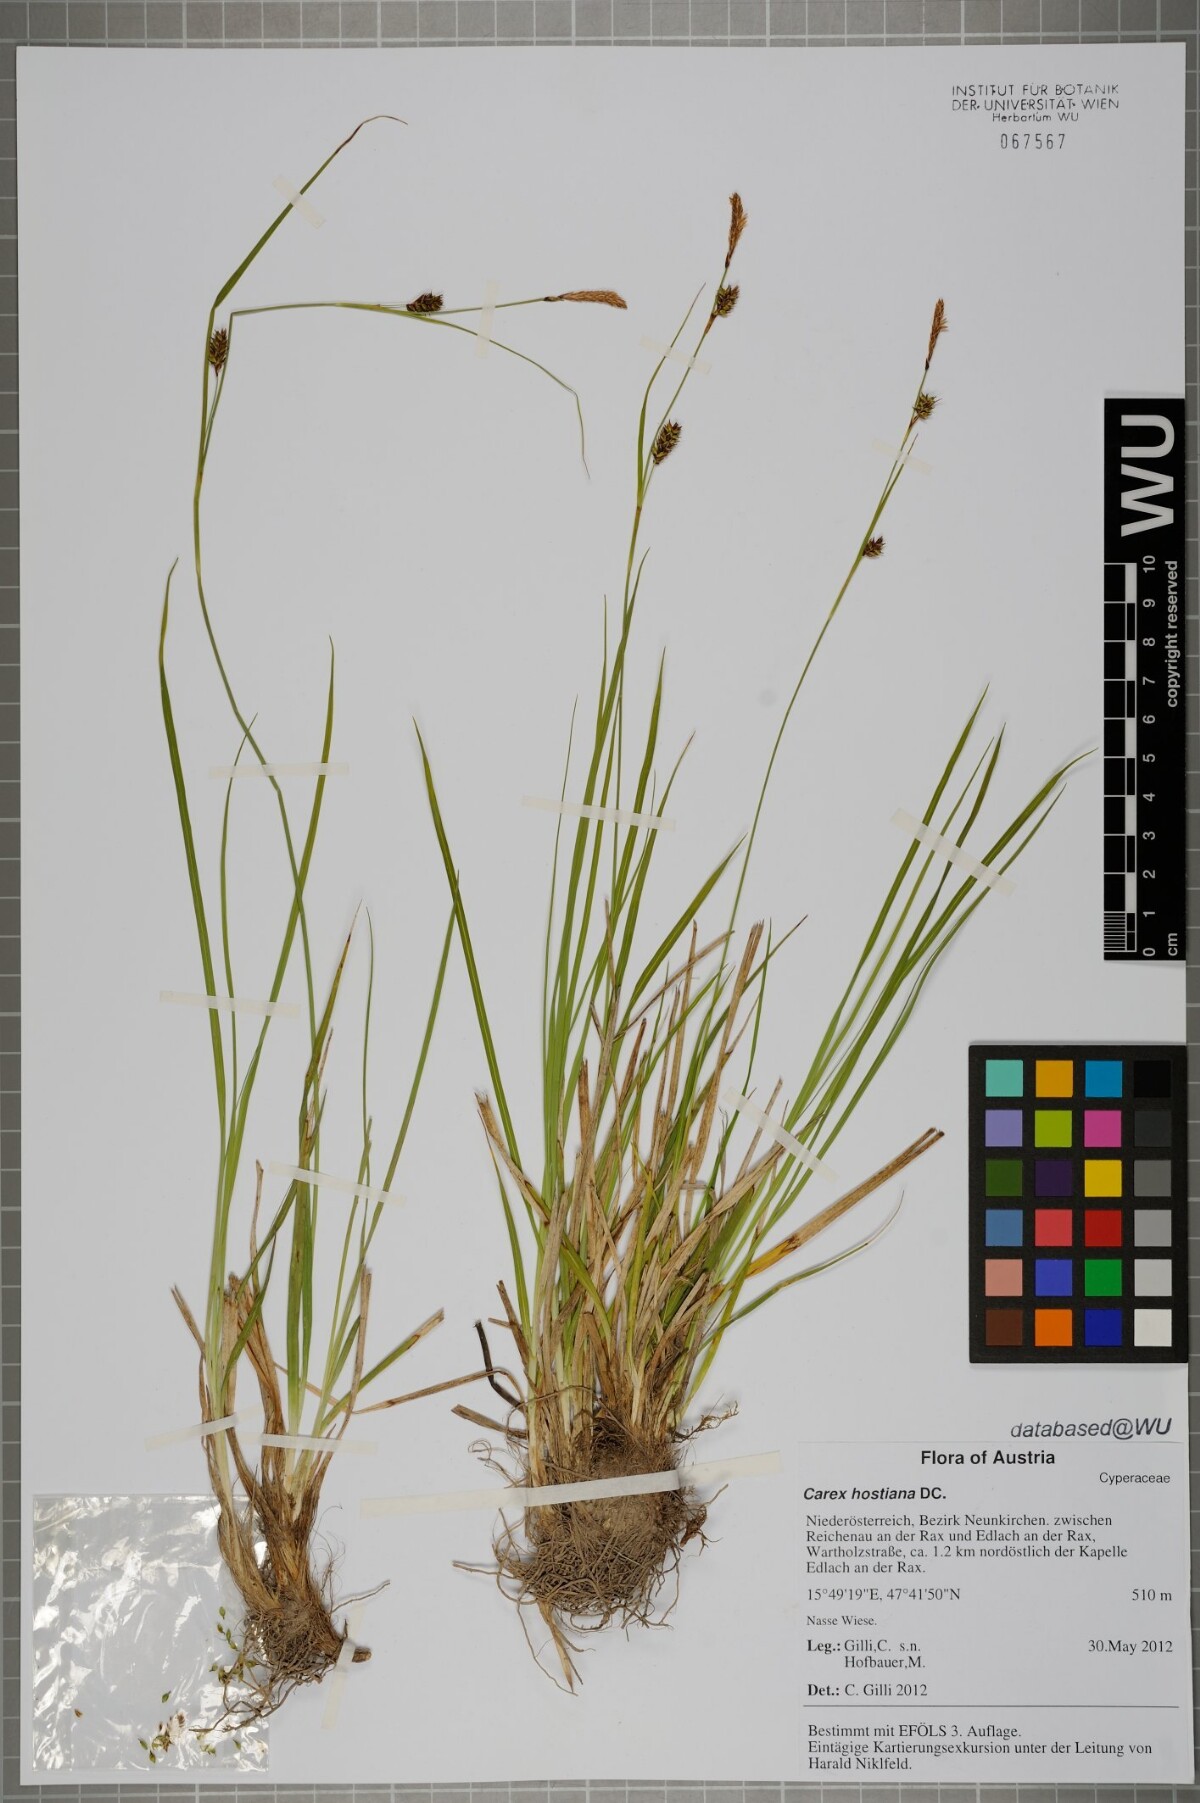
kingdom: Plantae
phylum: Tracheophyta
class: Liliopsida
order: Poales
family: Cyperaceae
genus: Carex
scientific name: Carex hostiana
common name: Tawny sedge
